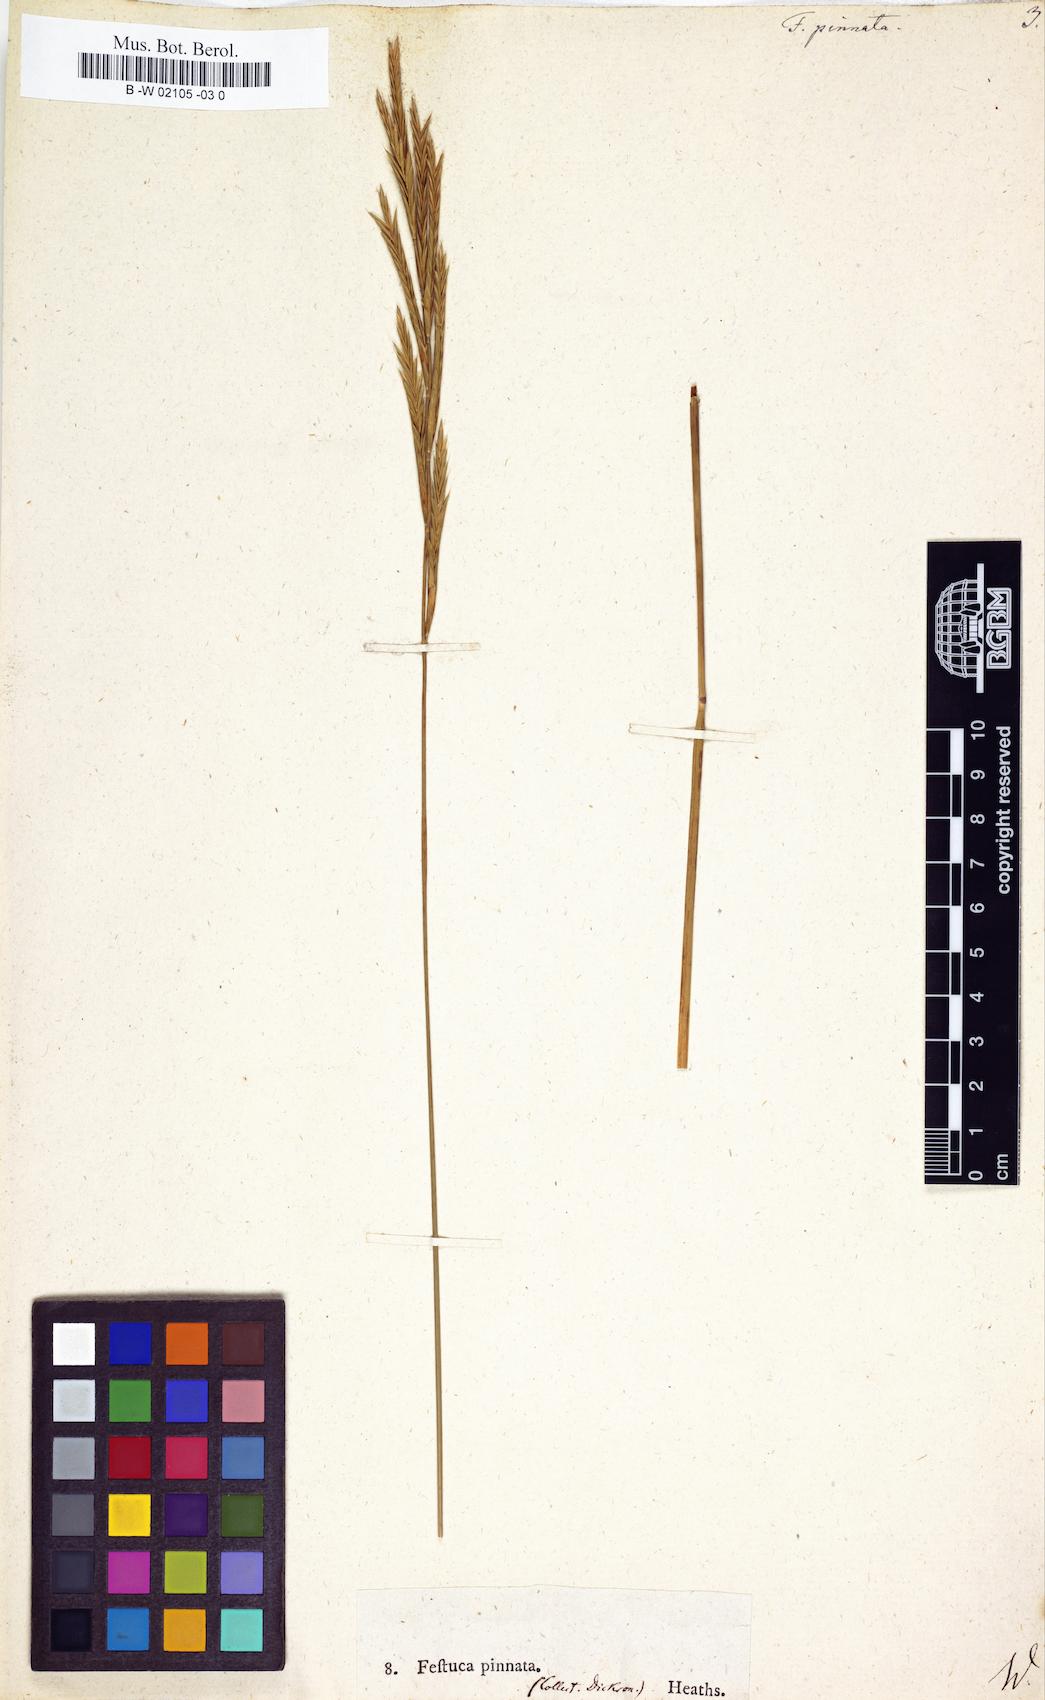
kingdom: Plantae
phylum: Tracheophyta
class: Liliopsida
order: Poales
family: Poaceae
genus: Brachypodium
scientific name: Brachypodium pinnatum
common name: Tor grass
